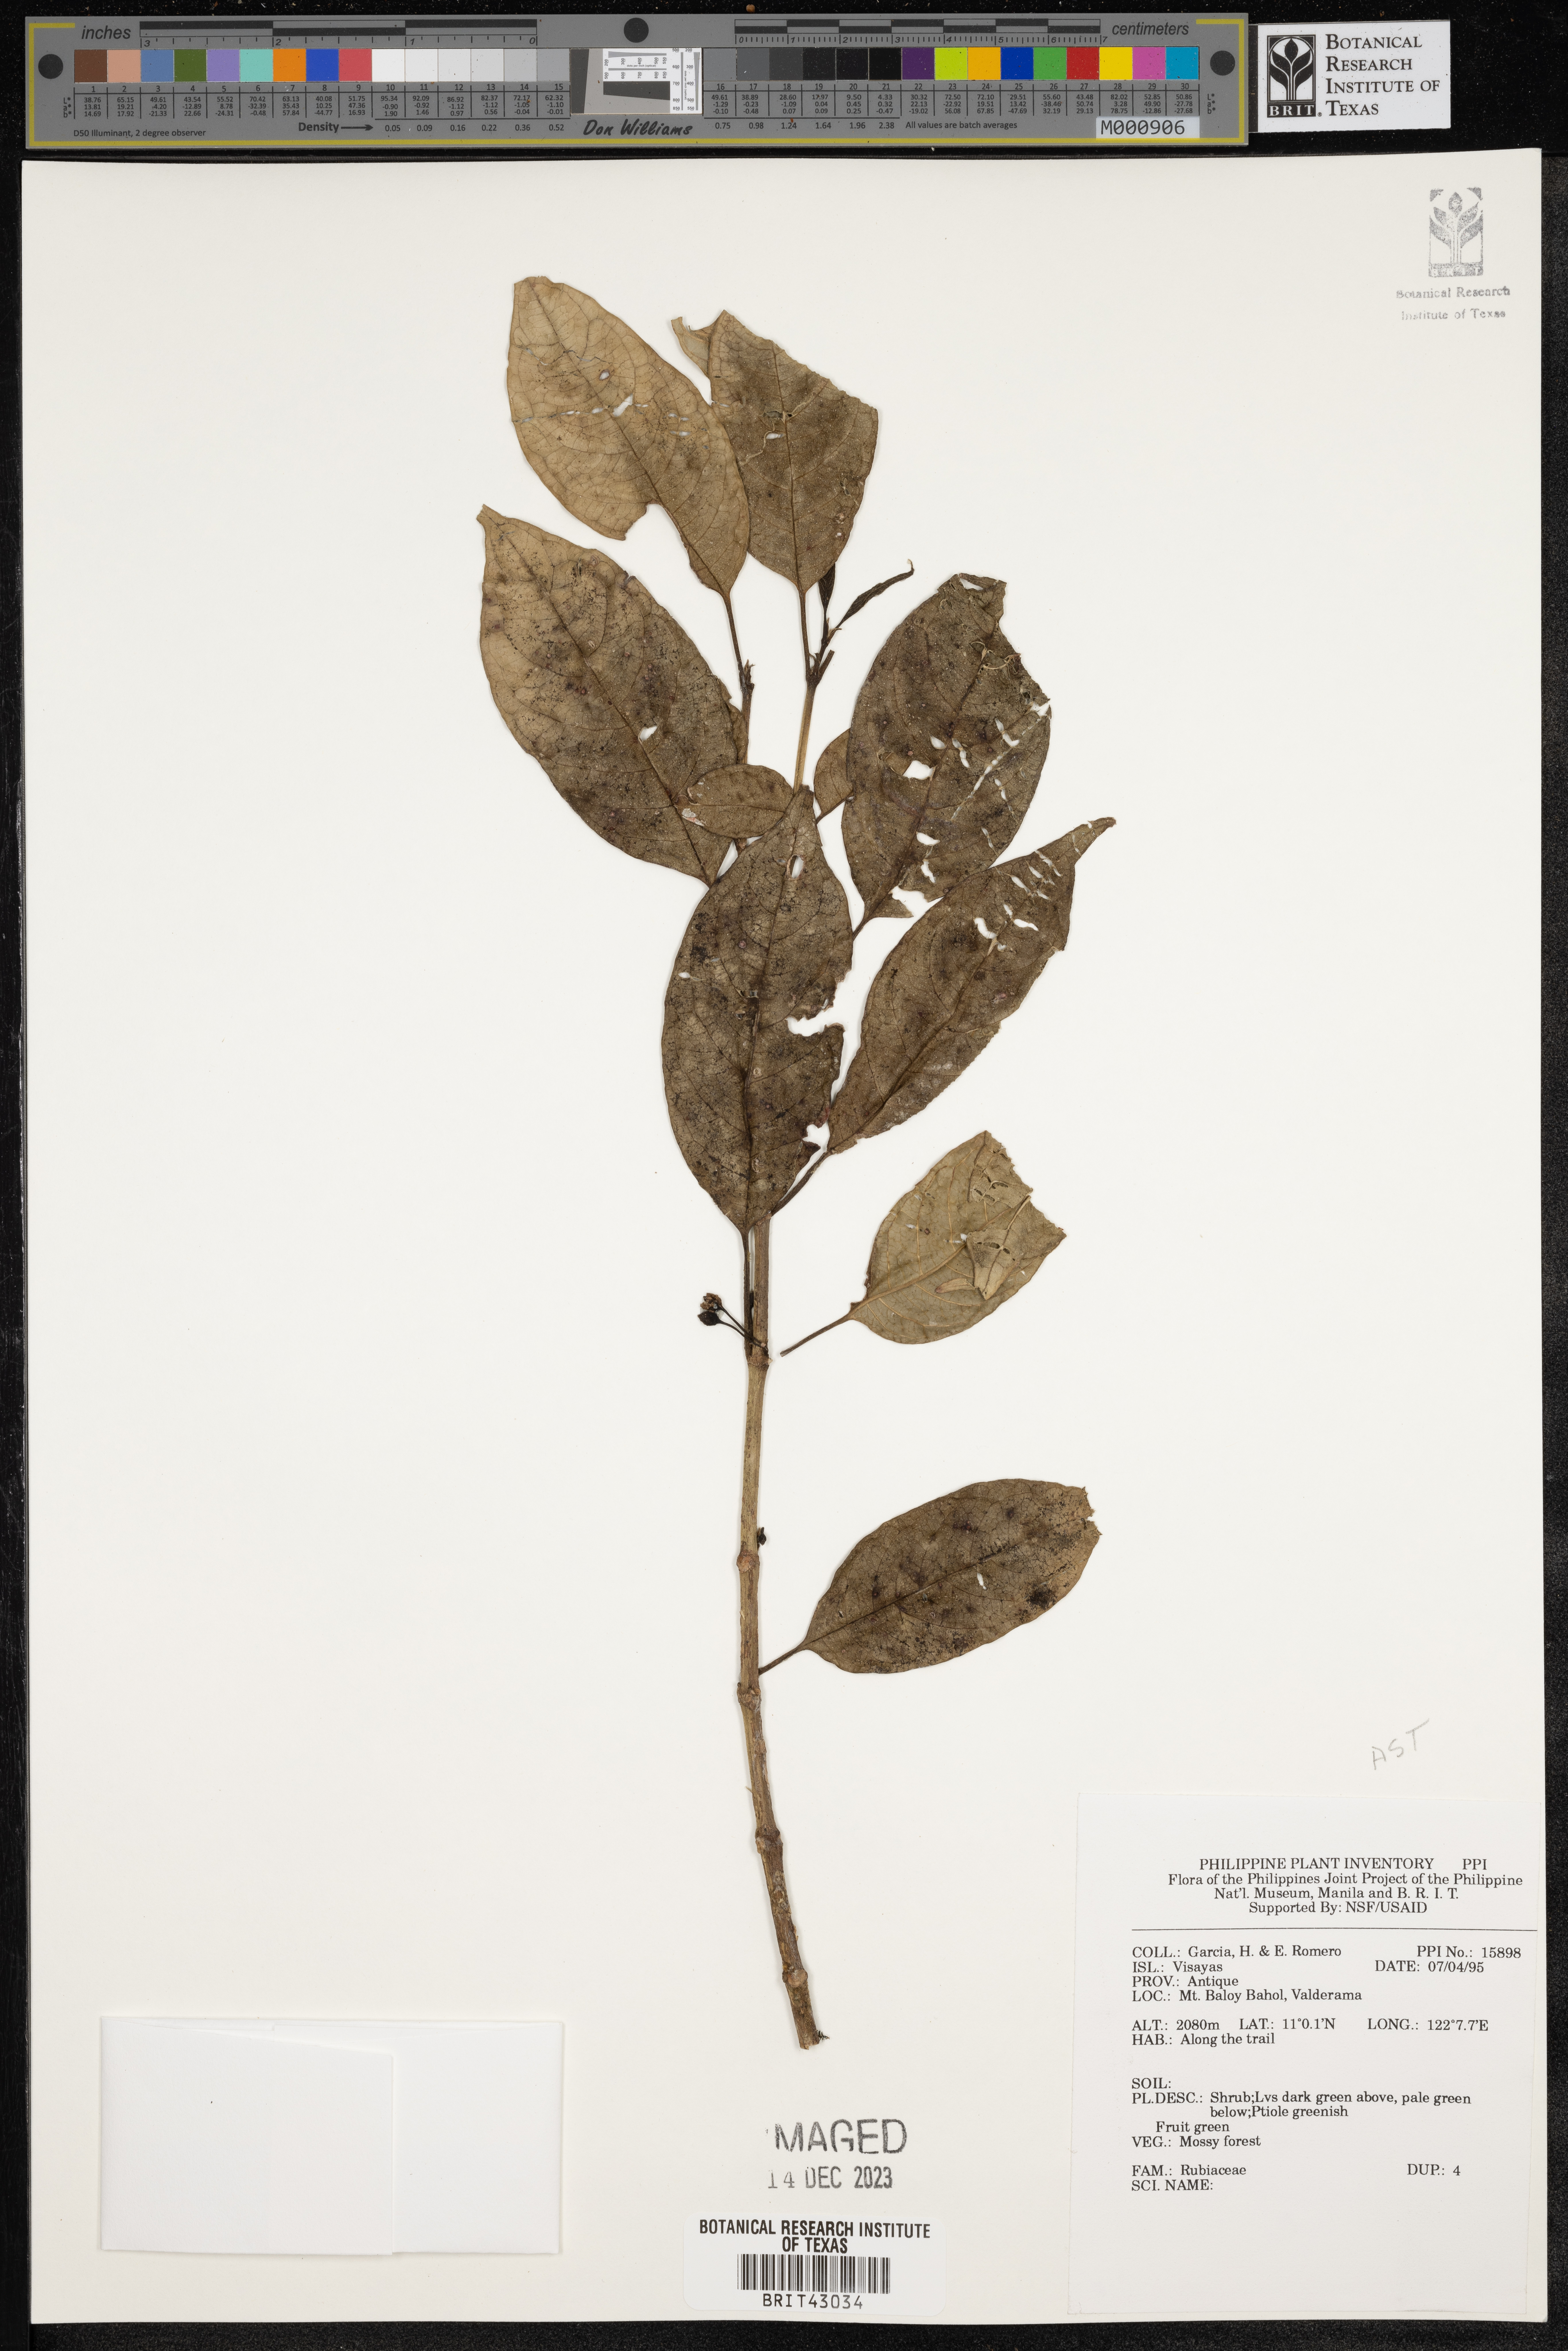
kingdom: Plantae
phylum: Tracheophyta
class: Magnoliopsida
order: Gentianales
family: Rubiaceae
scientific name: Rubiaceae
